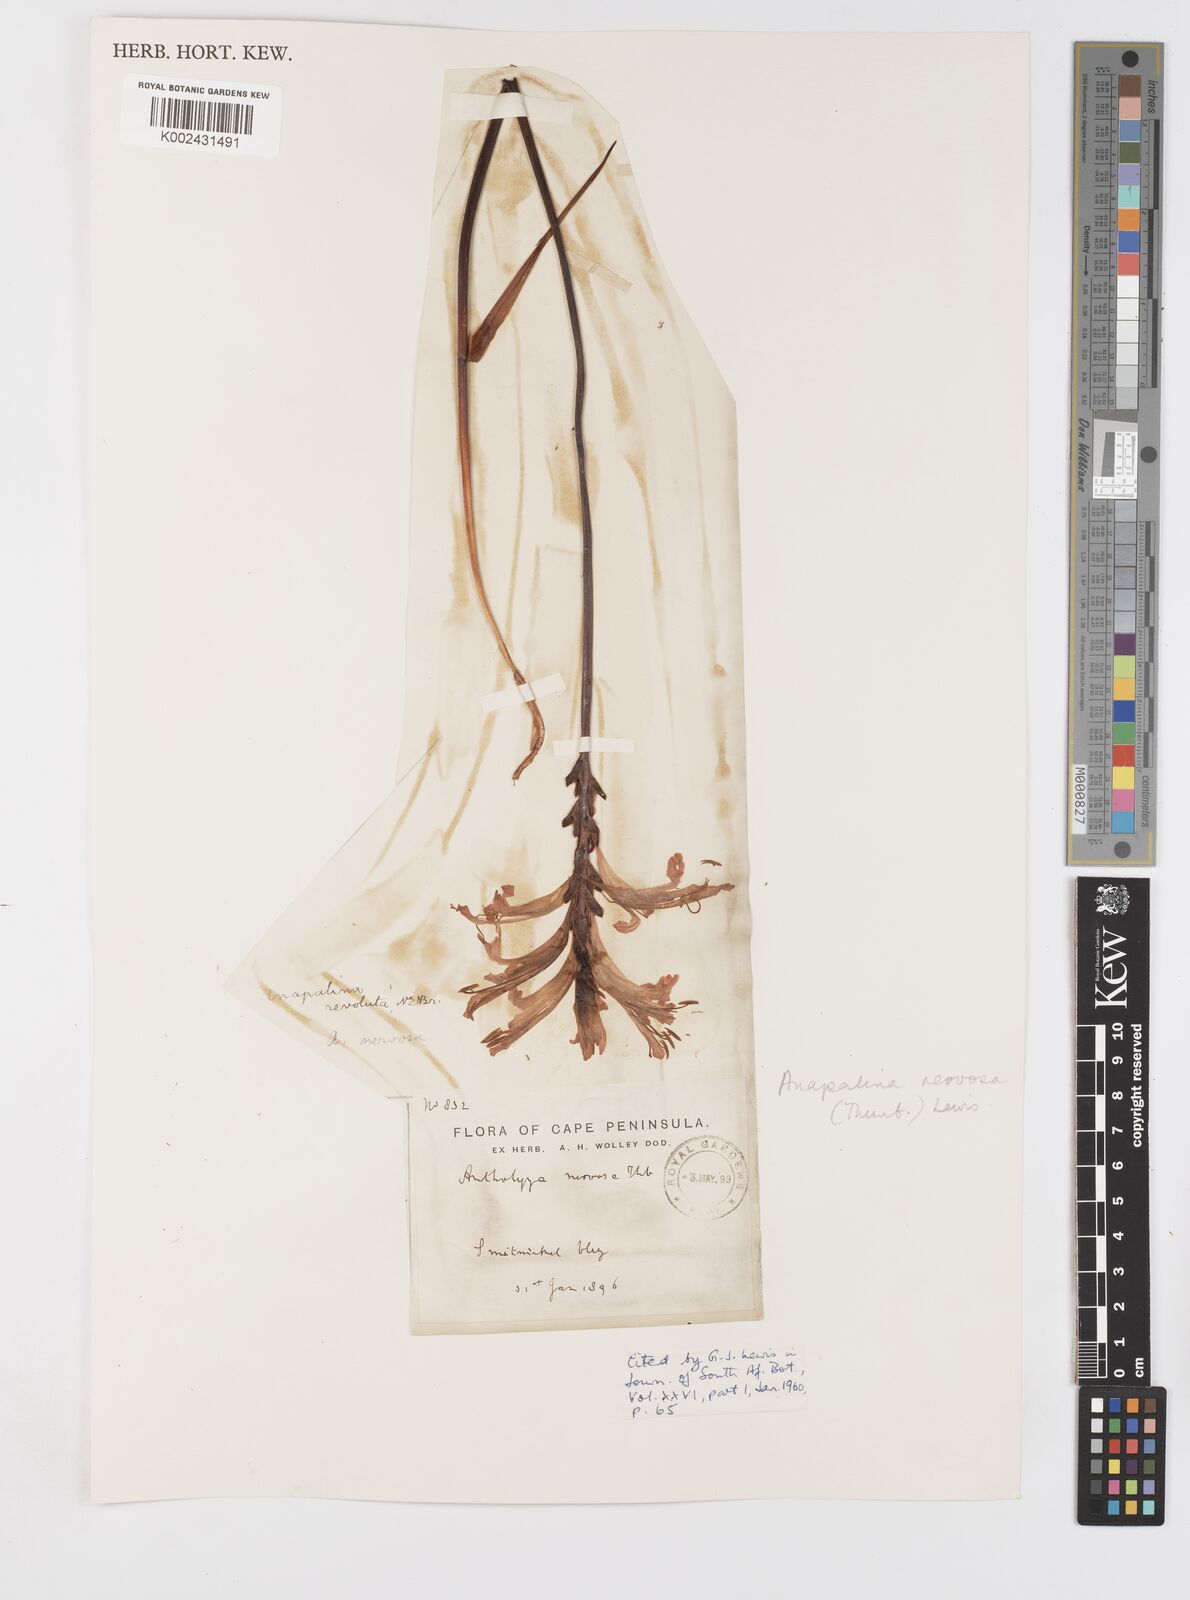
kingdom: Plantae
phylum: Tracheophyta
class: Liliopsida
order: Asparagales
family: Iridaceae
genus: Tritoniopsis
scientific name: Tritoniopsis nervosa
